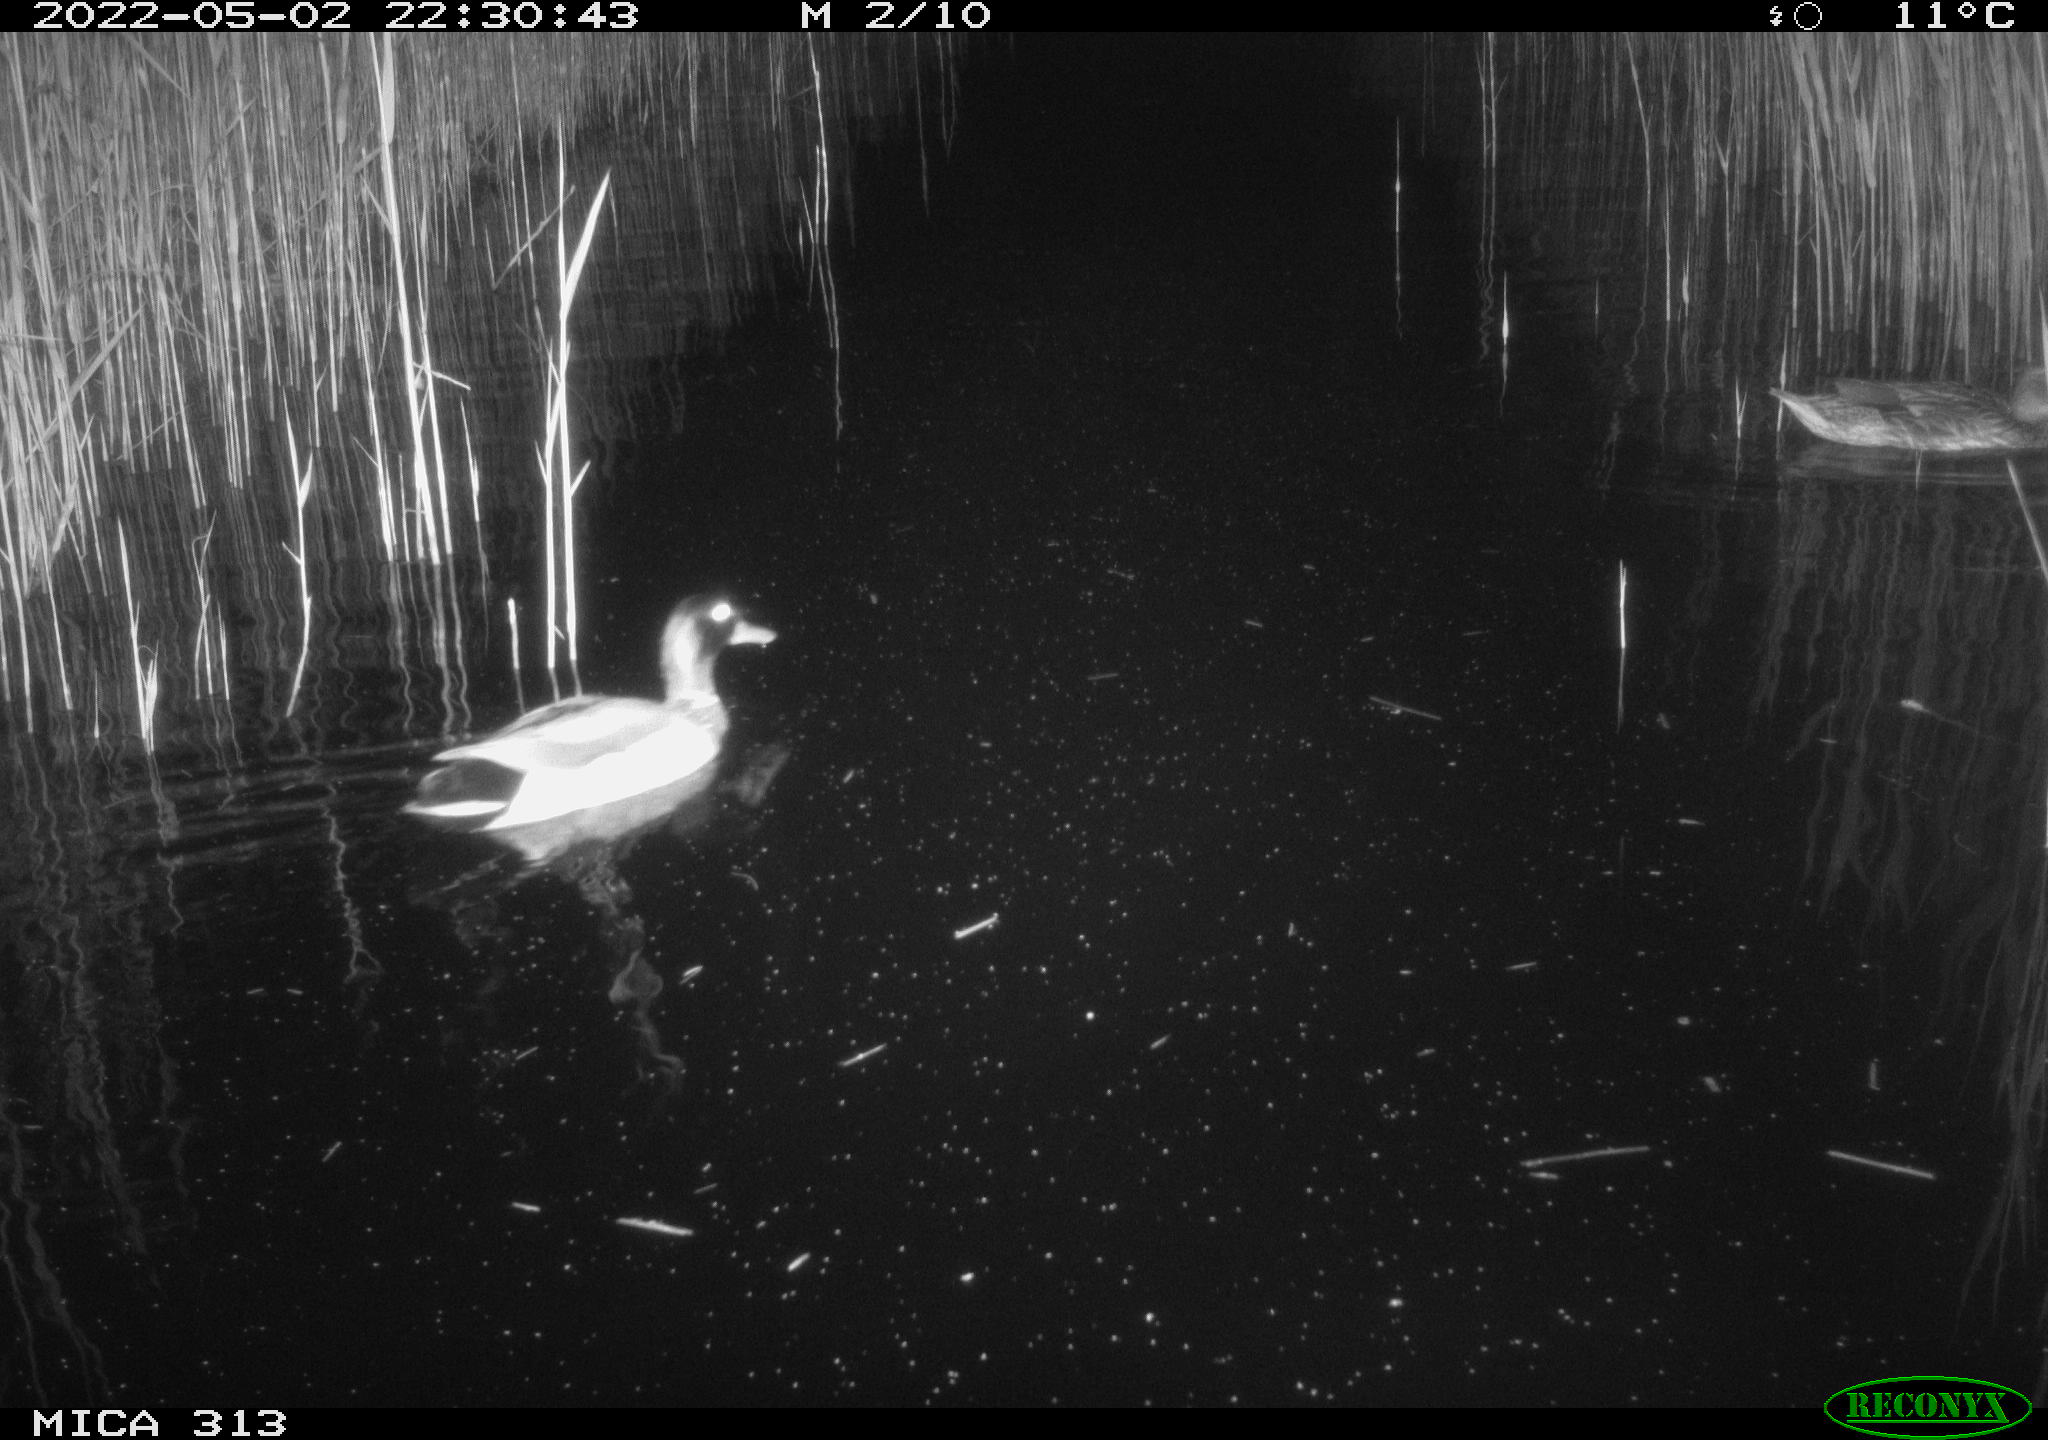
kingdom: Animalia
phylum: Chordata
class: Aves
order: Gruiformes
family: Rallidae
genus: Gallinula
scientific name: Gallinula chloropus
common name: Common moorhen
